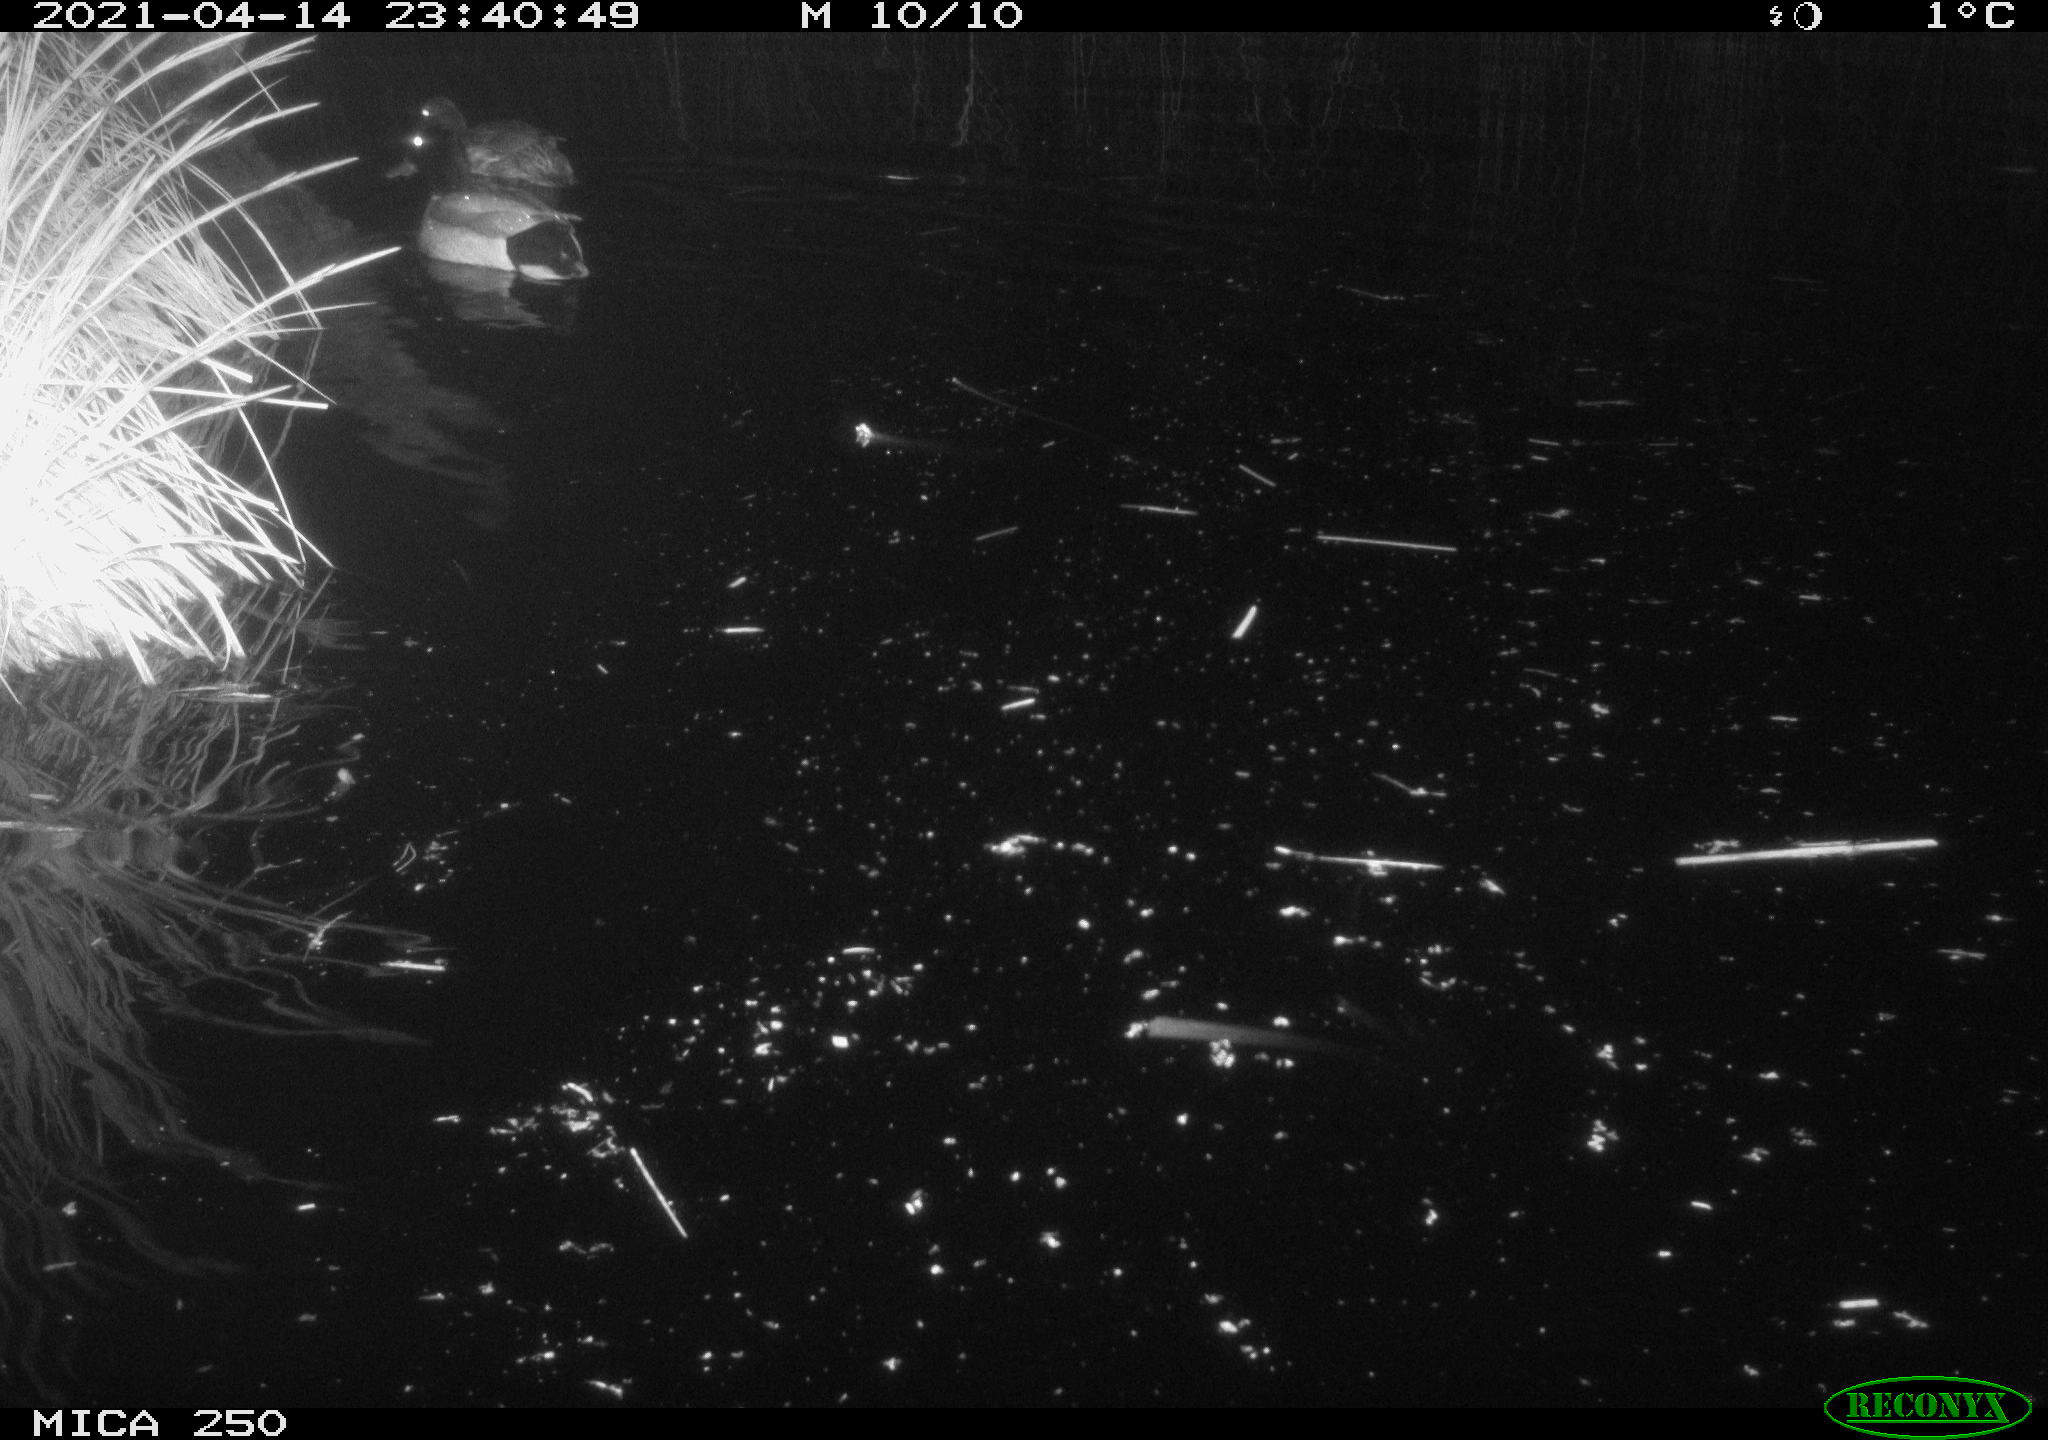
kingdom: Animalia
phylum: Chordata
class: Aves
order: Anseriformes
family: Anatidae
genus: Anas
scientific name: Anas platyrhynchos
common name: Mallard
